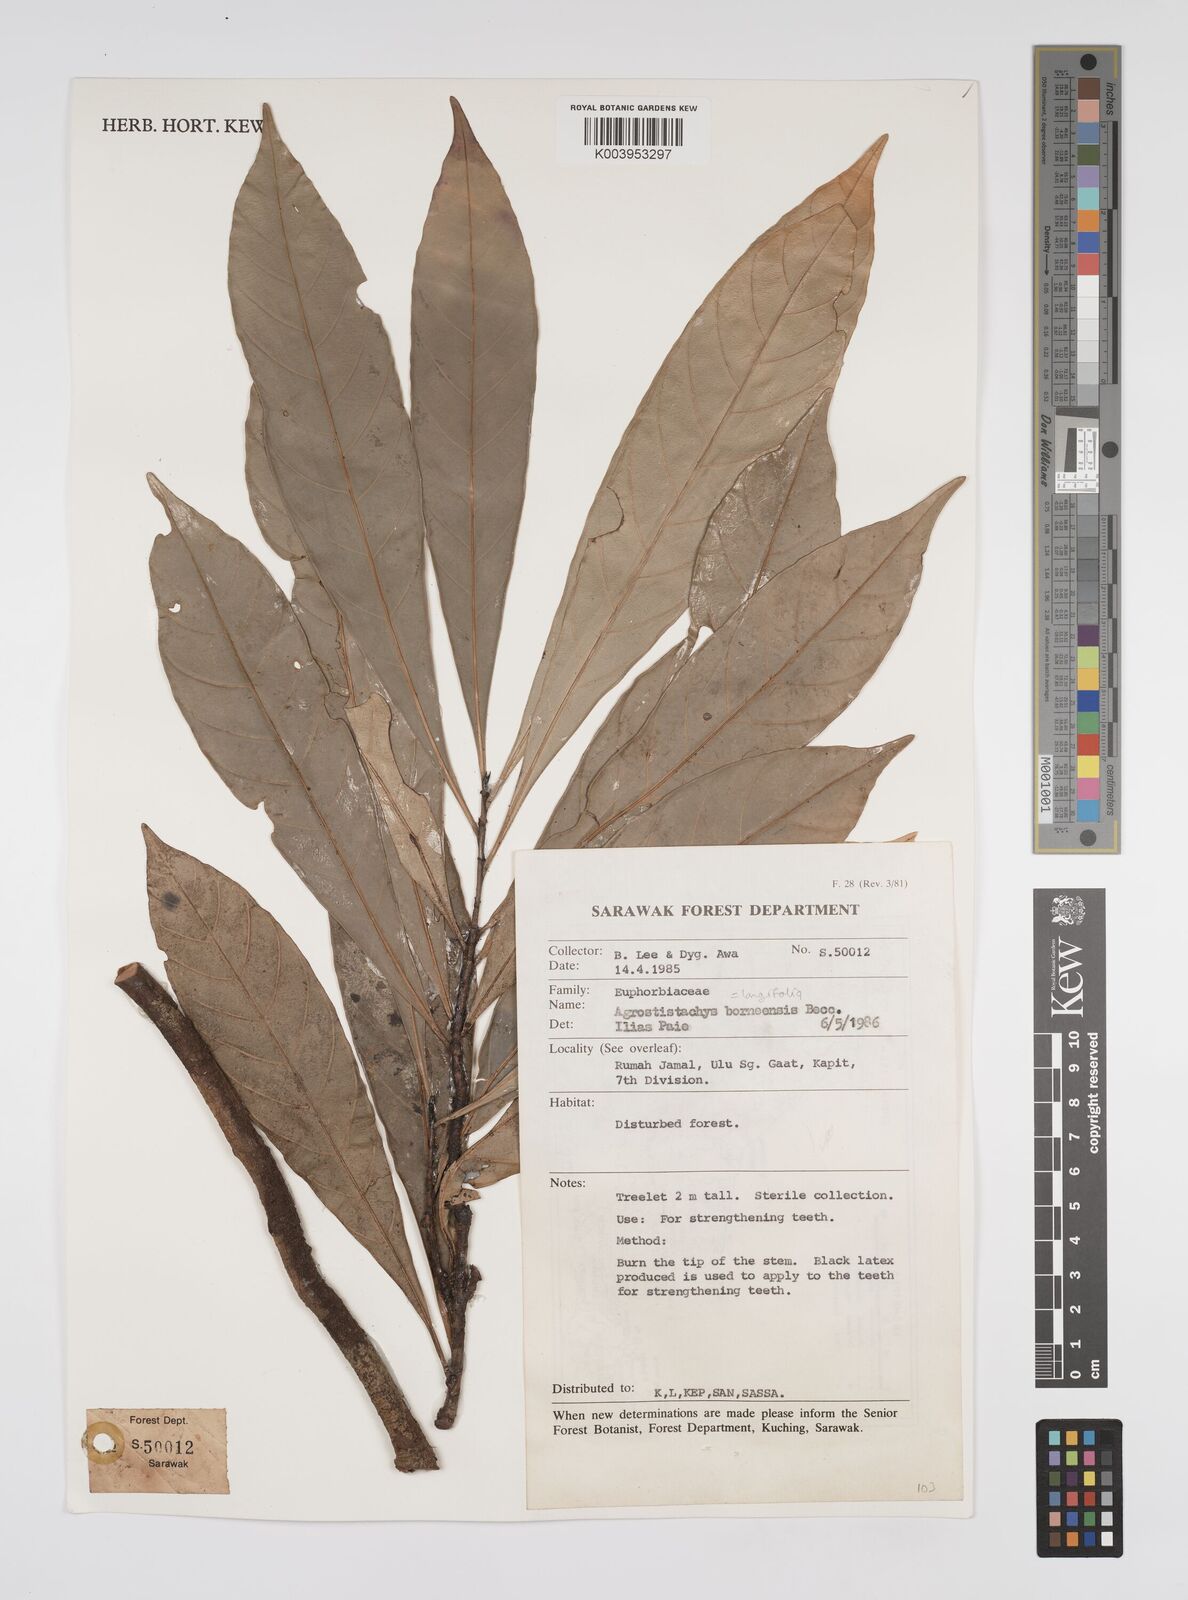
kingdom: Plantae
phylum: Tracheophyta
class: Magnoliopsida
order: Malpighiales
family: Euphorbiaceae
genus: Agrostistachys
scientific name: Agrostistachys
